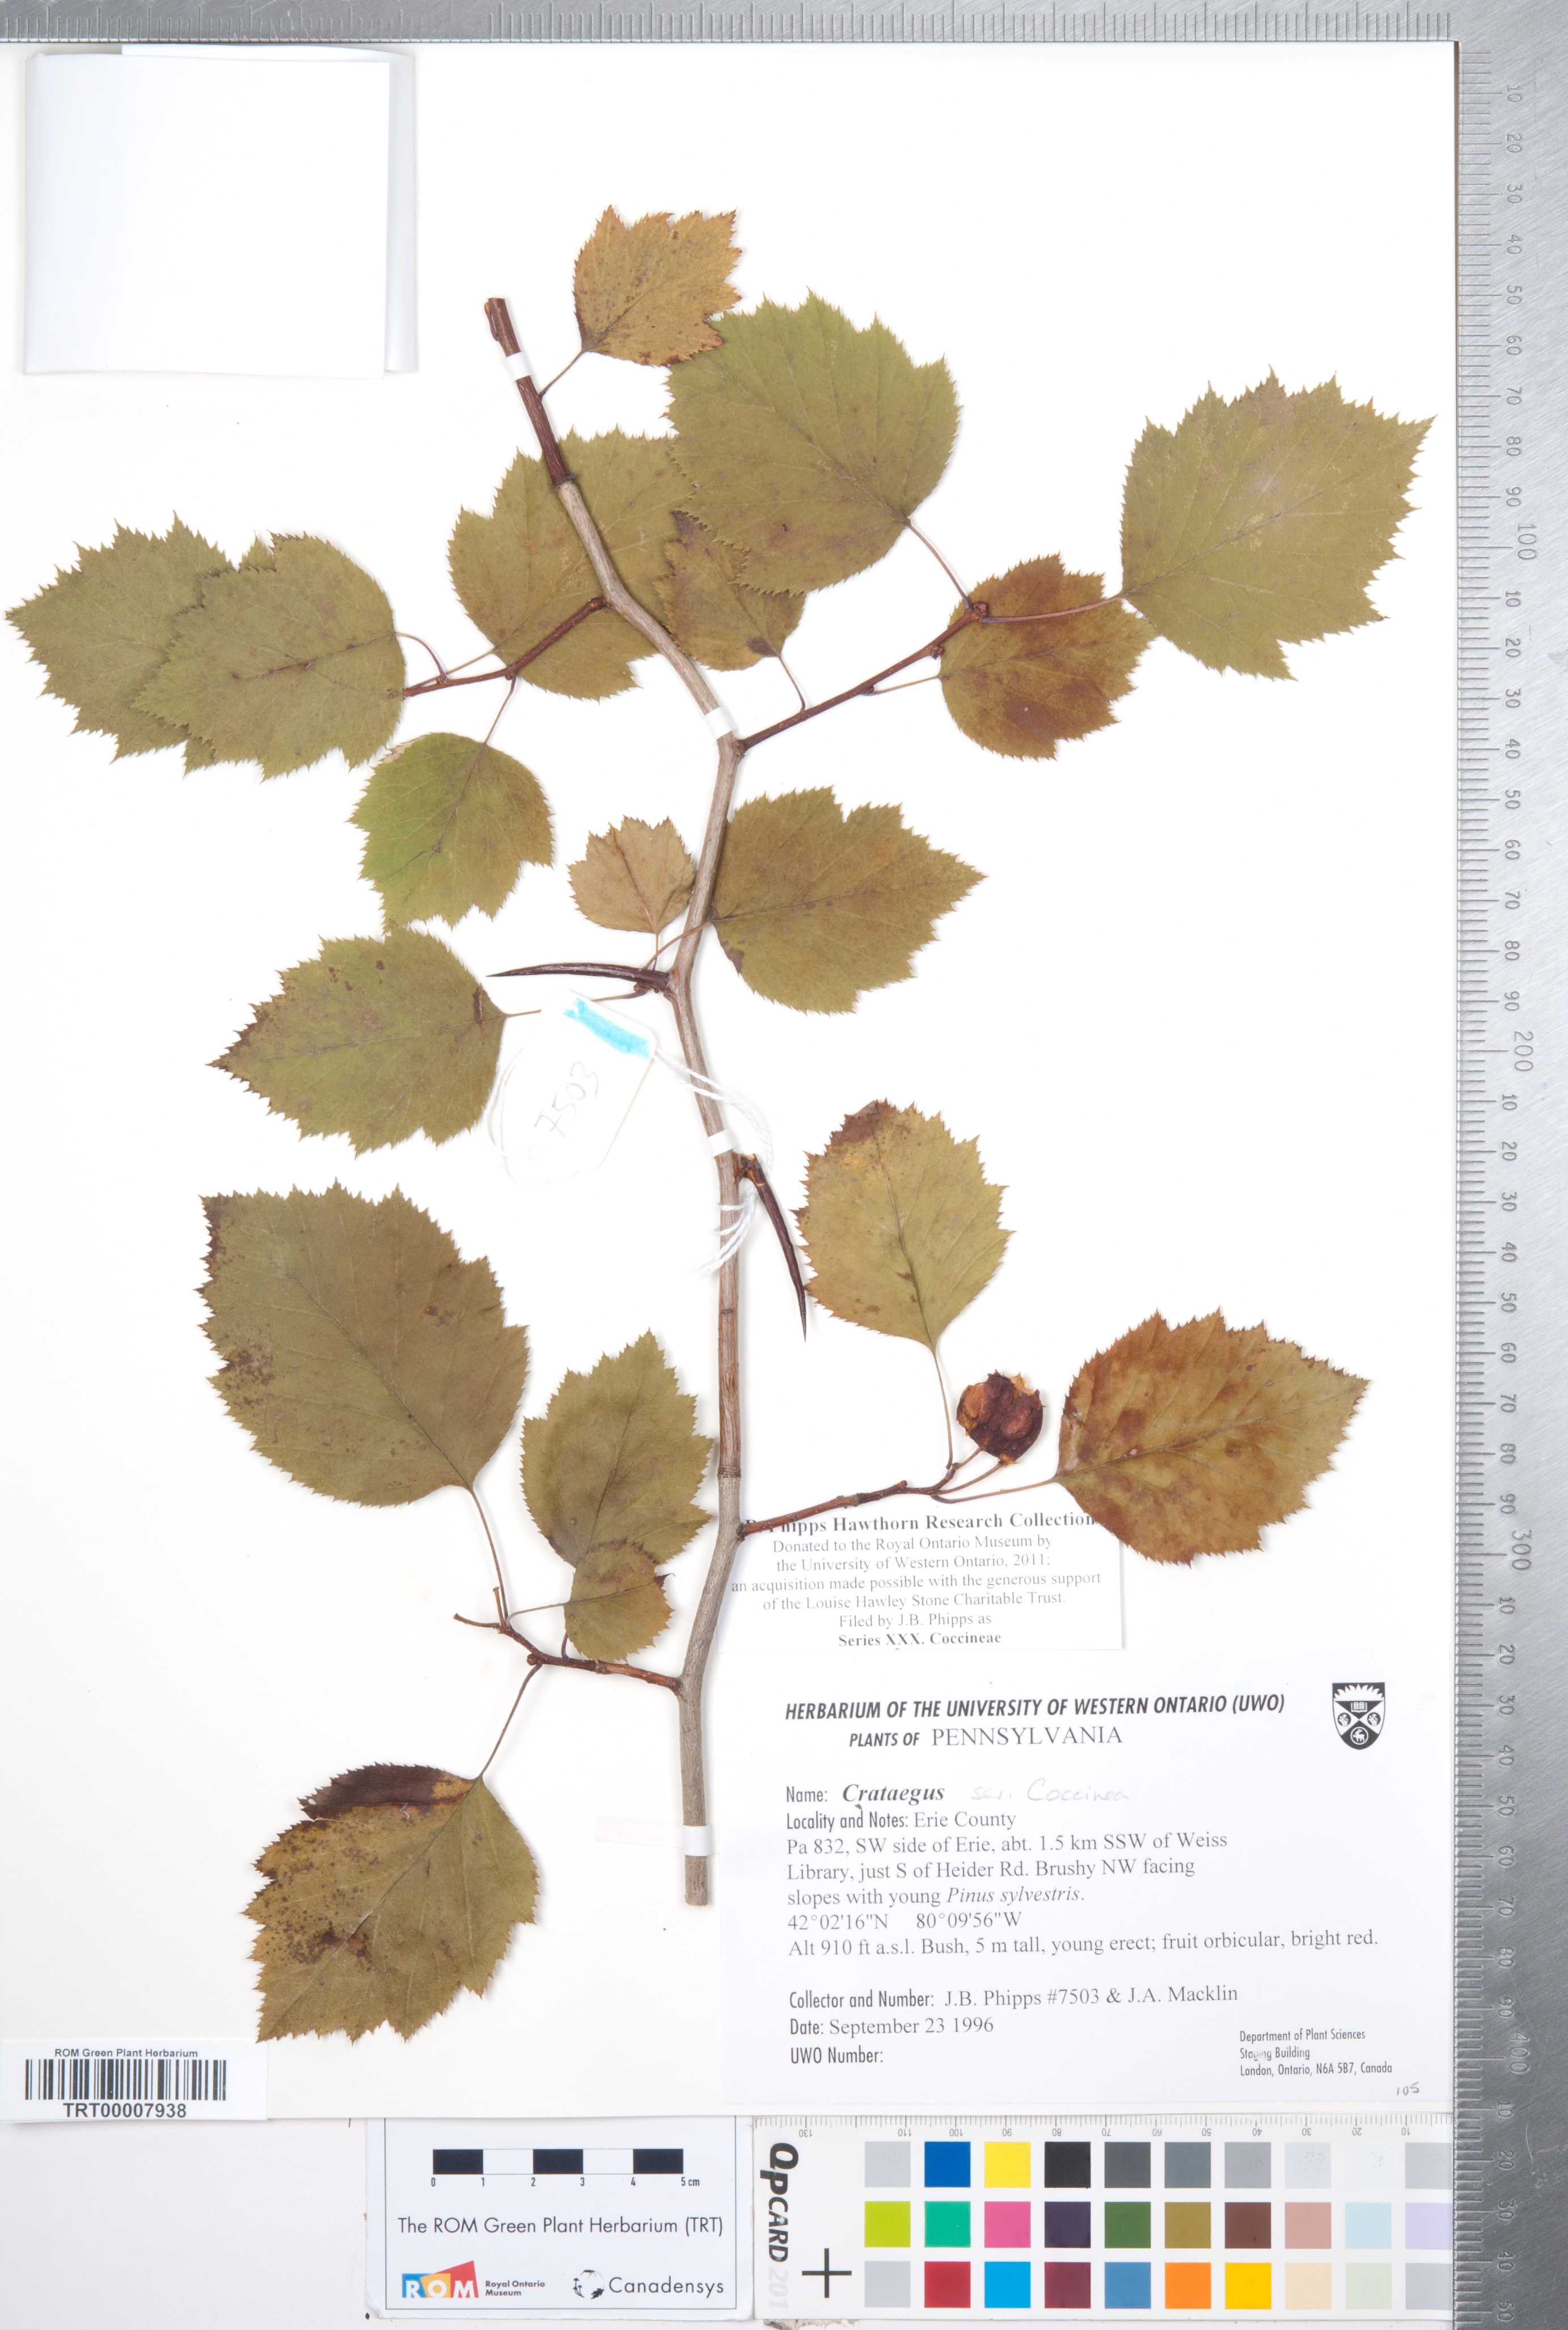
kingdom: Plantae
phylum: Tracheophyta
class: Magnoliopsida
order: Rosales
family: Rosaceae
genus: Crataegus
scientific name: Crataegus
